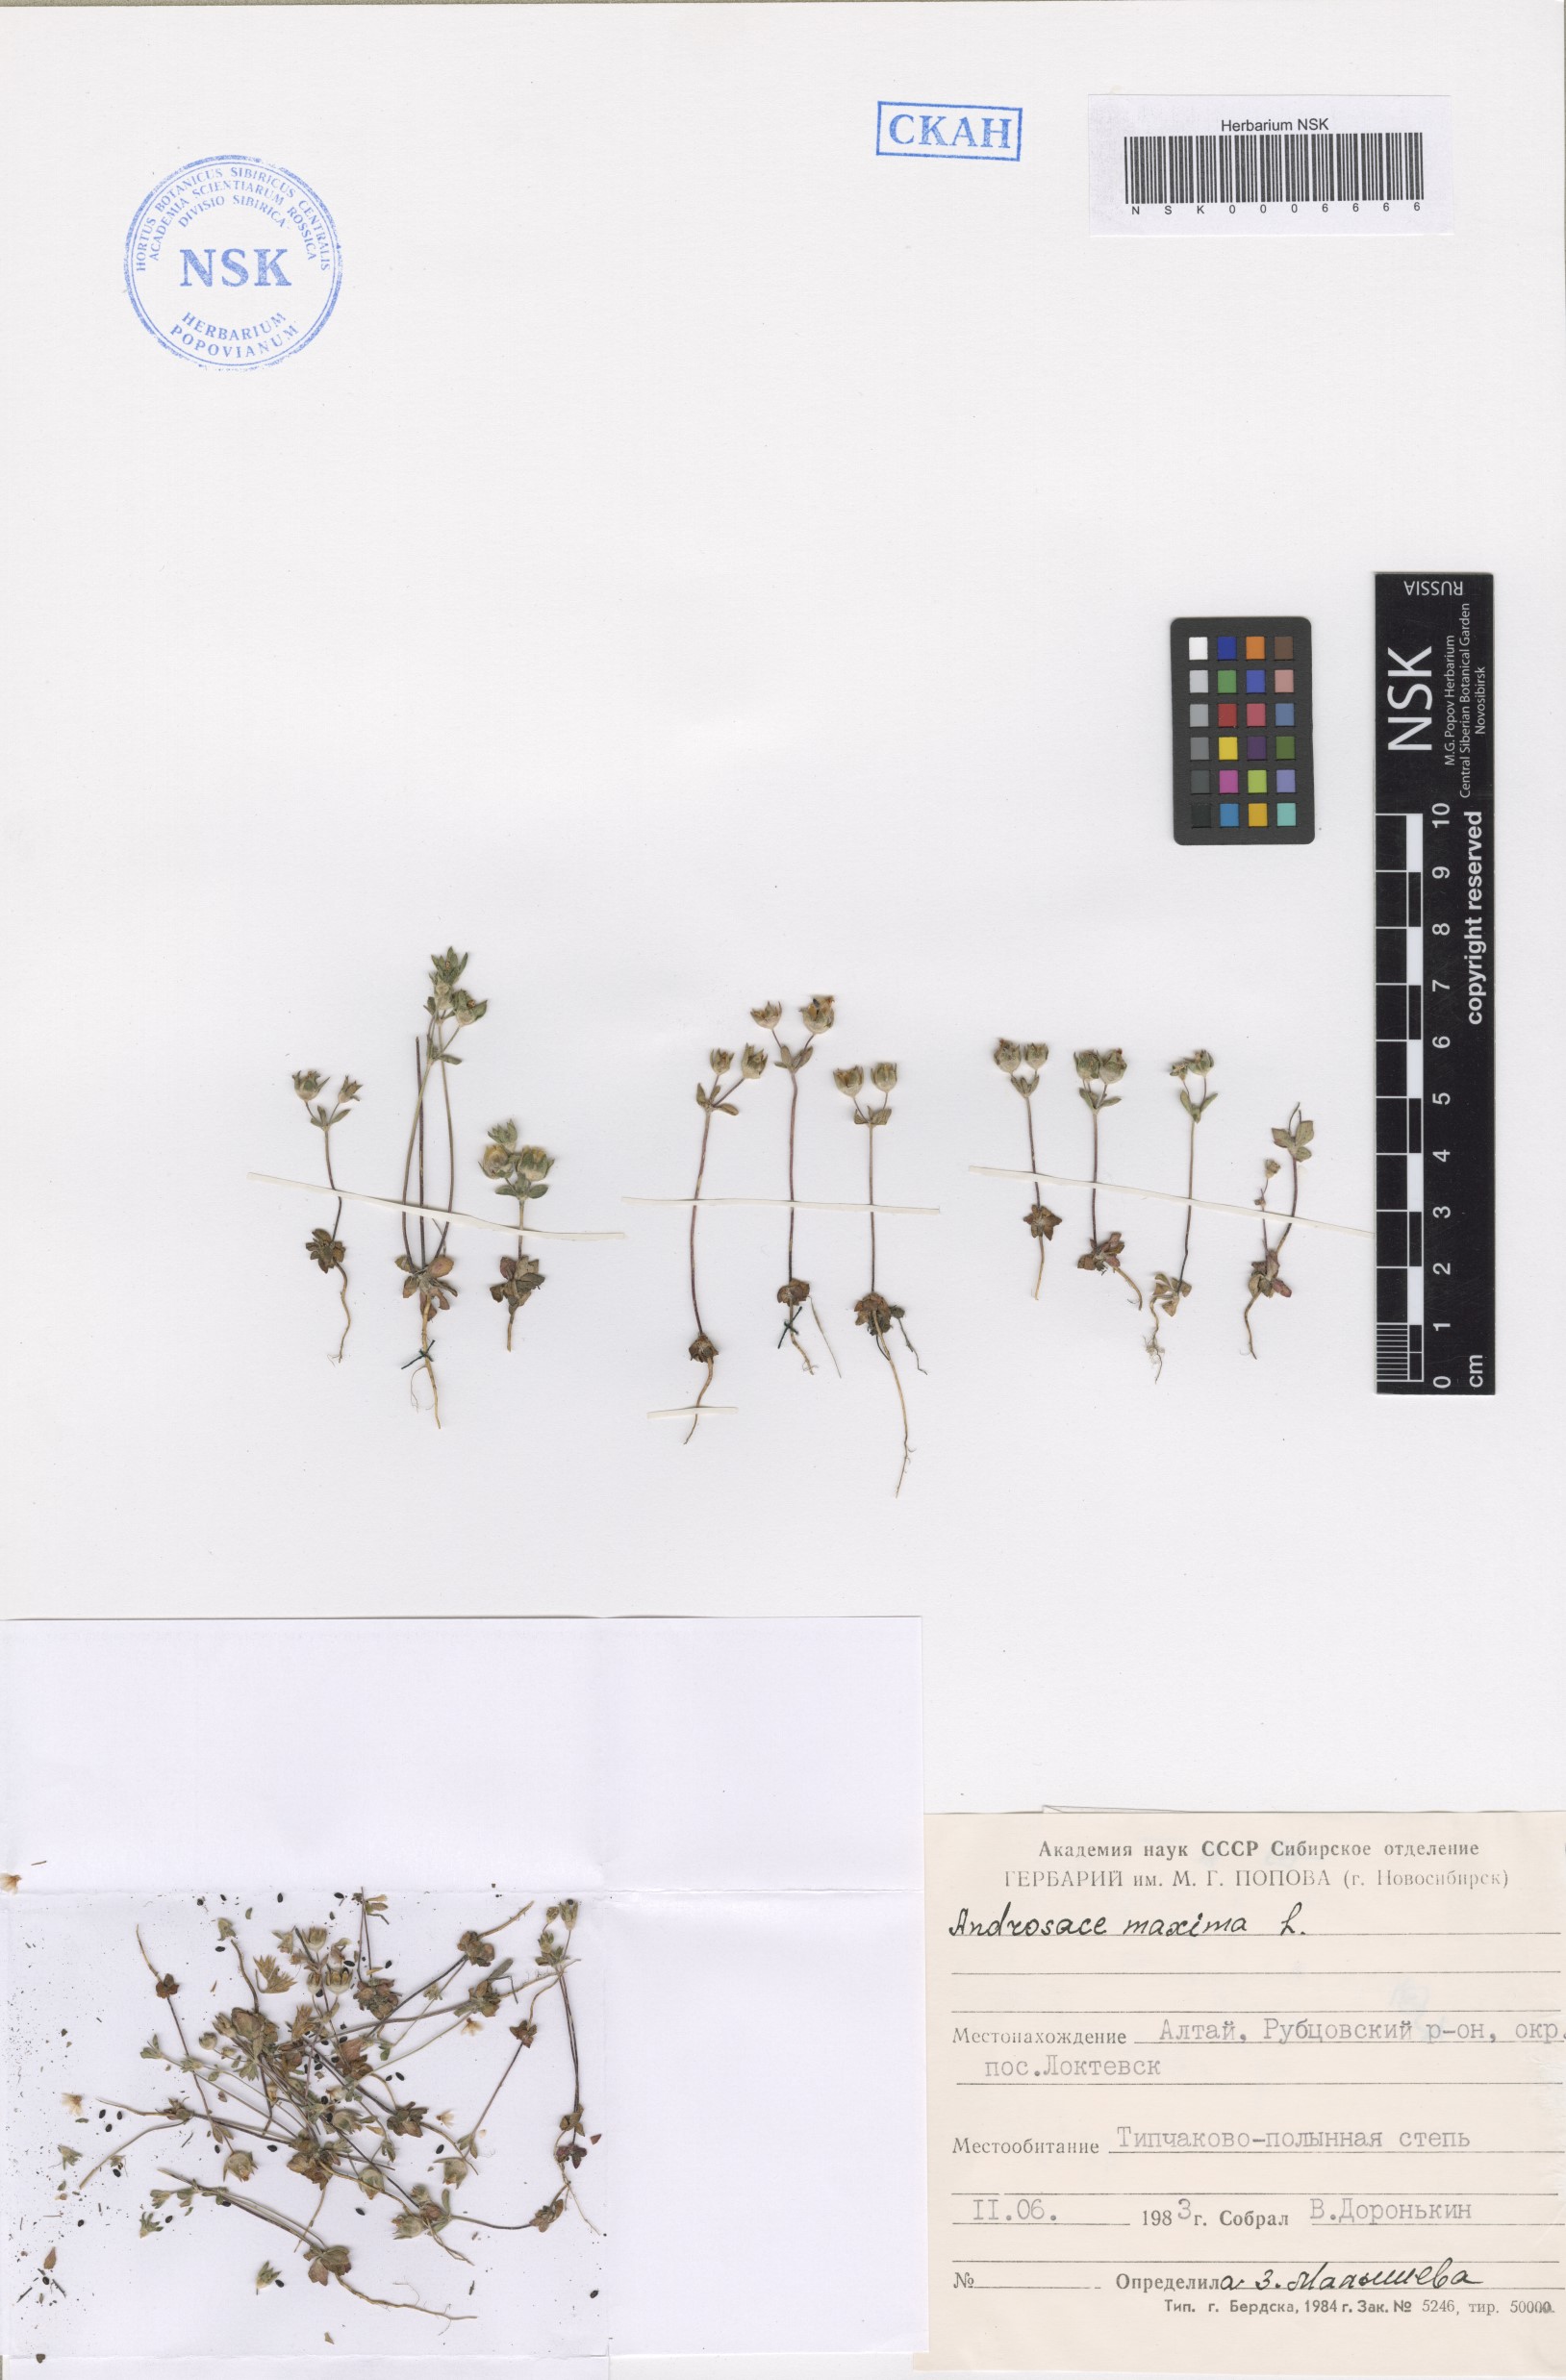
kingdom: Plantae
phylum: Tracheophyta
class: Magnoliopsida
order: Ericales
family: Primulaceae
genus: Androsace
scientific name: Androsace maxima
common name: Annual androsace
